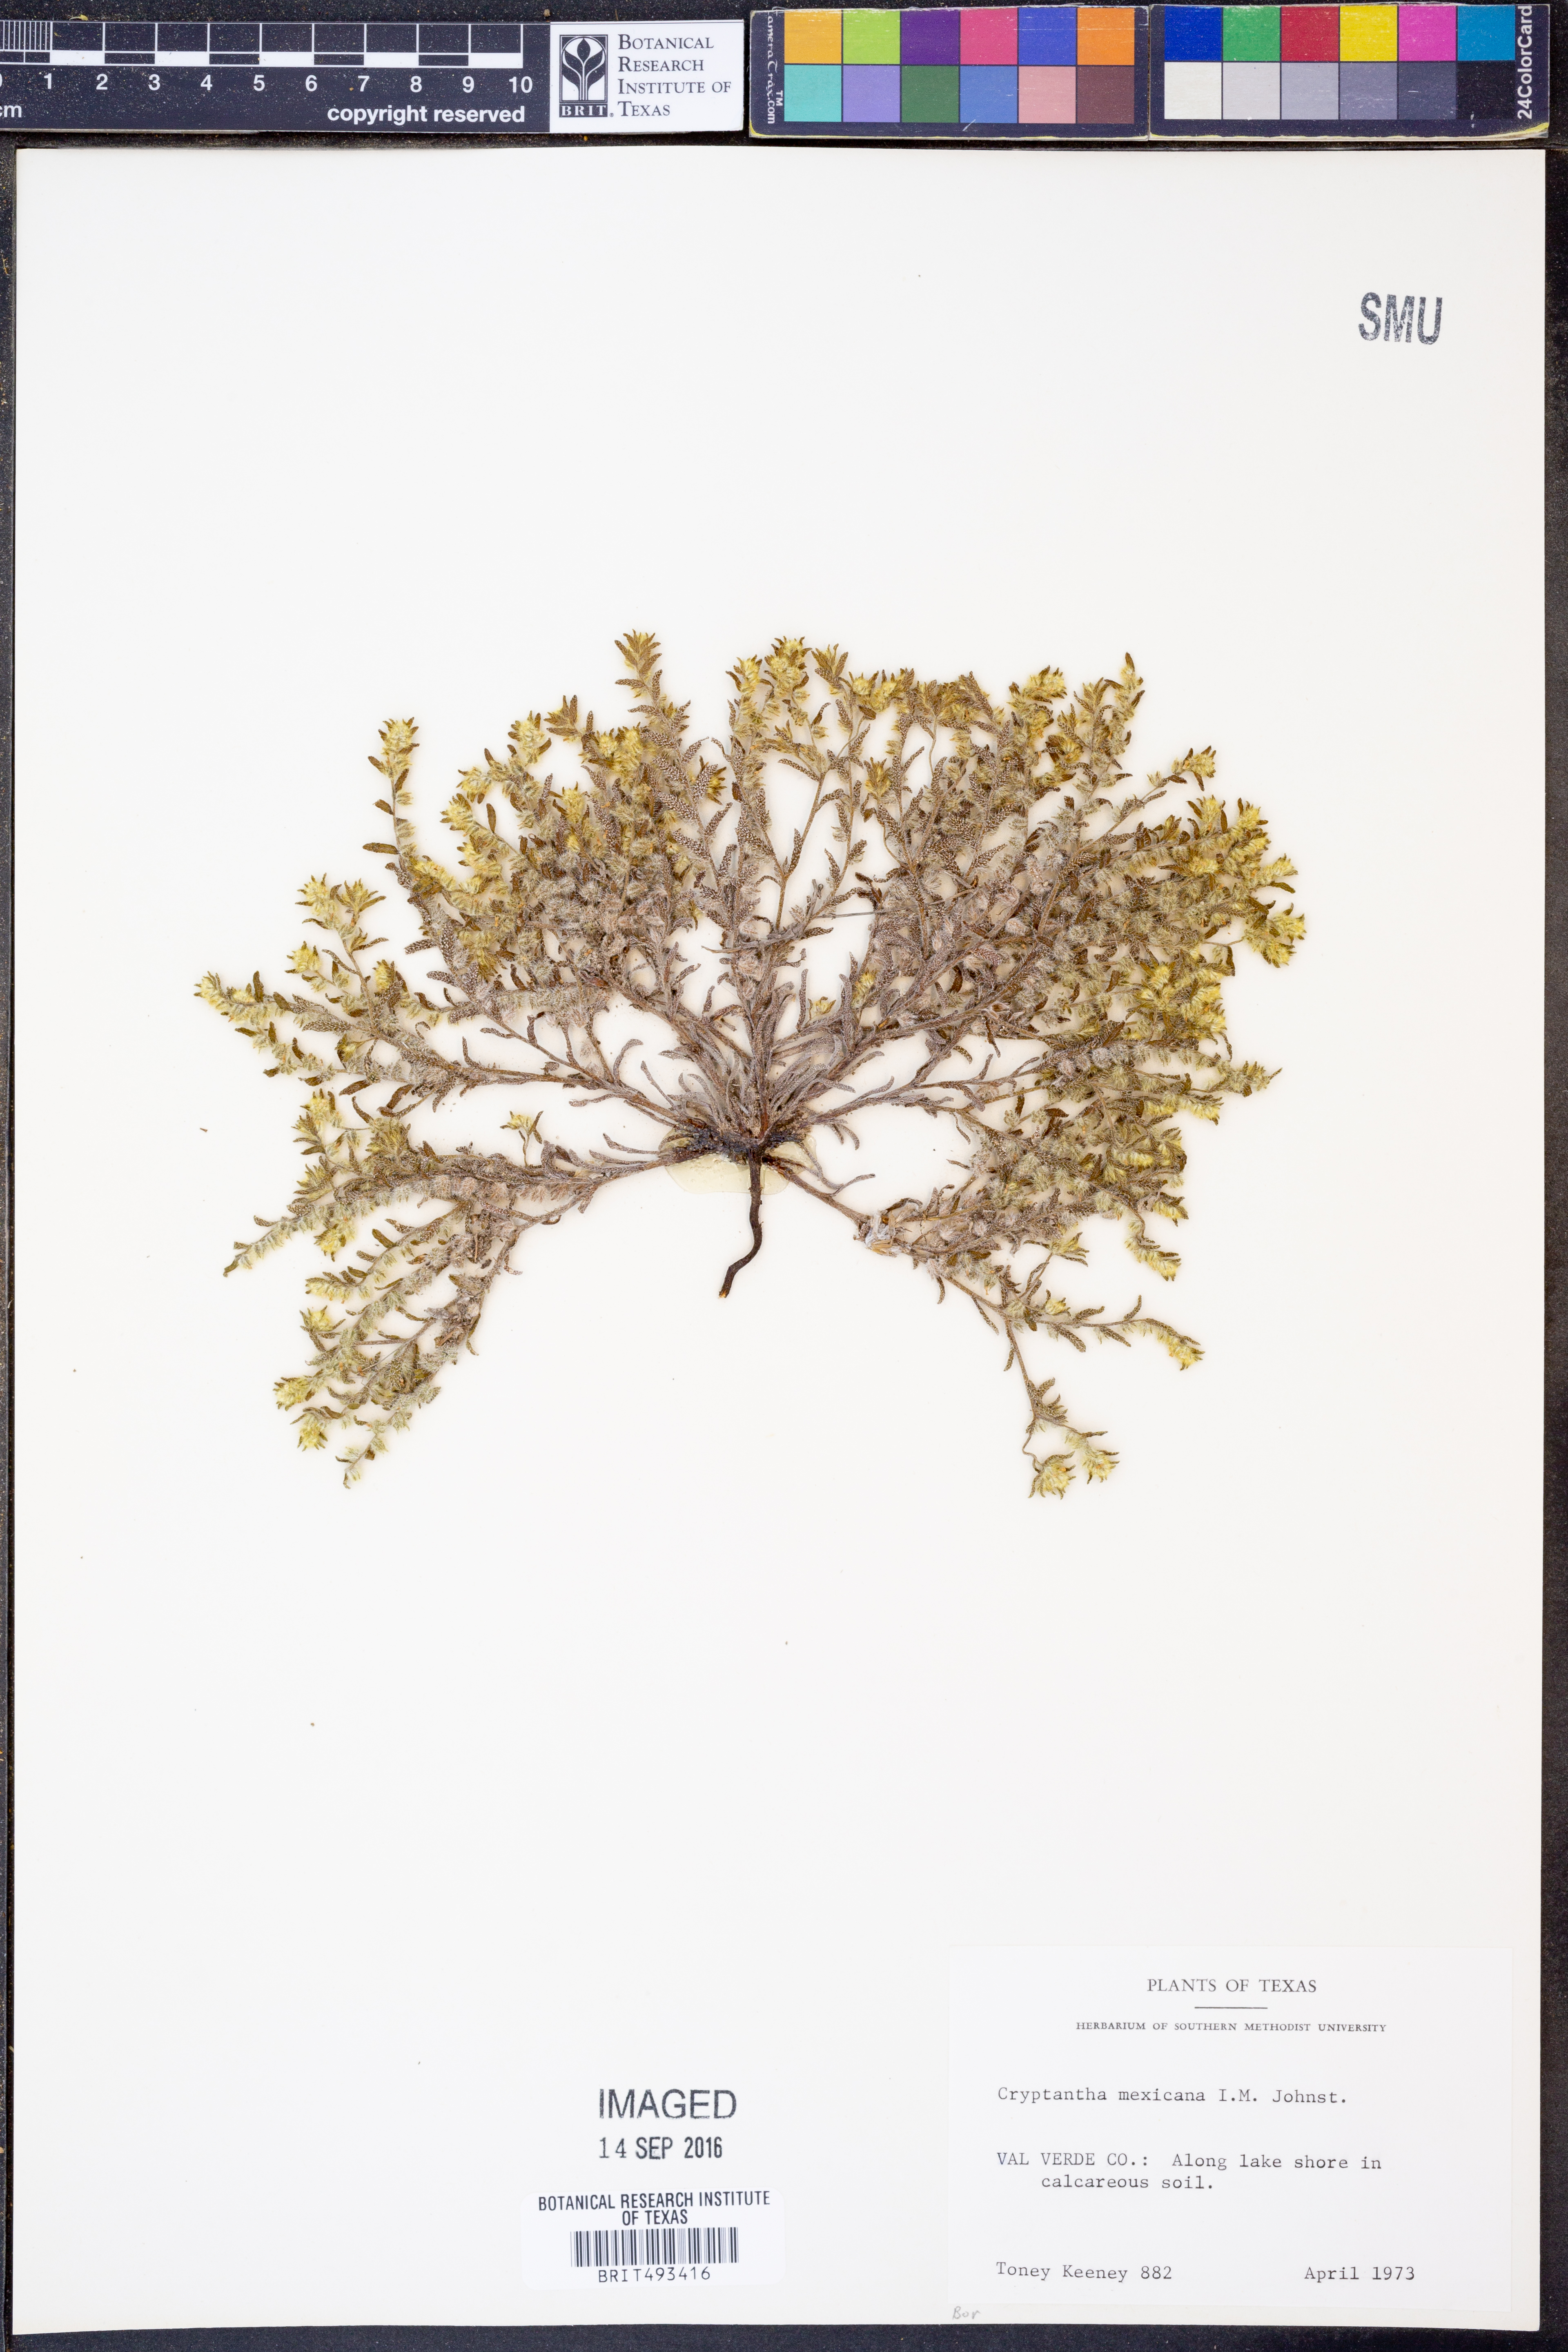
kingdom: Plantae
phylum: Tracheophyta
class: Magnoliopsida
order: Boraginales
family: Boraginaceae
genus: Johnstonella
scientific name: Johnstonella mexicana
